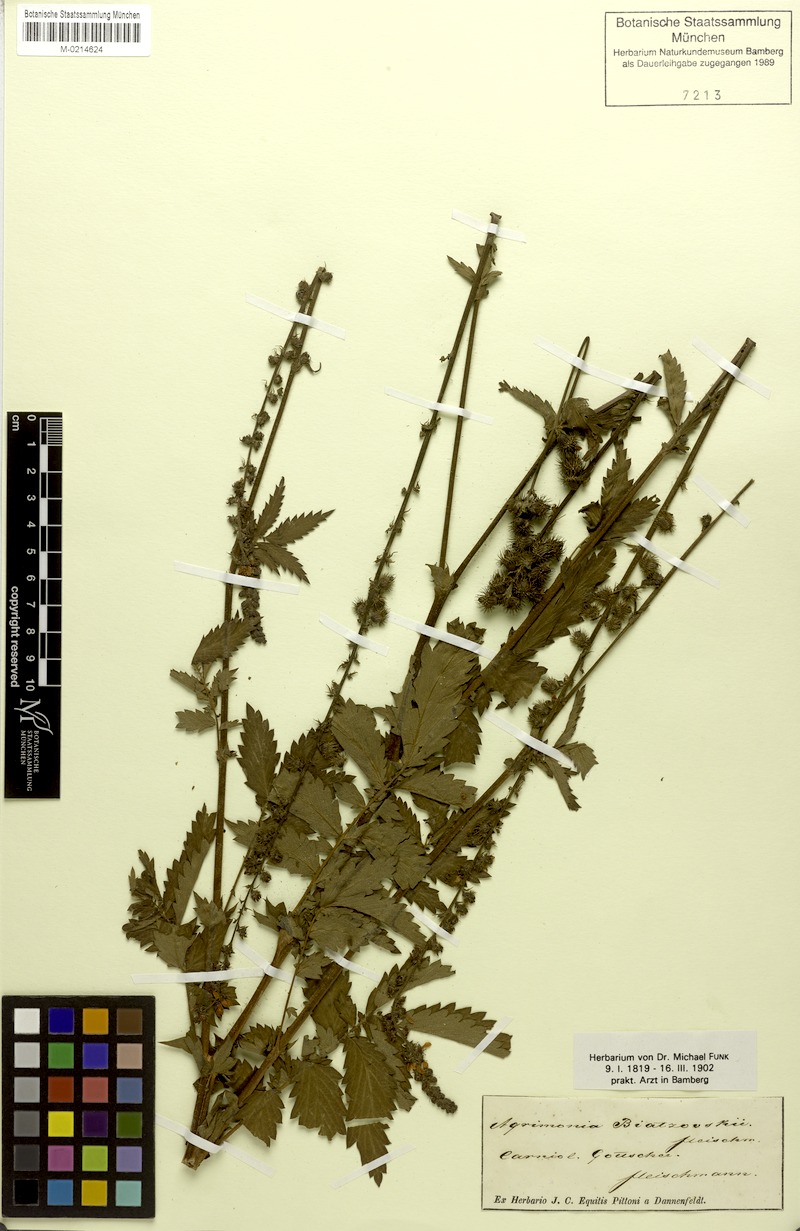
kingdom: Plantae
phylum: Tracheophyta
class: Magnoliopsida
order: Rosales
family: Rosaceae
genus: Agrimonia
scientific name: Agrimonia procera
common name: Fragrant agrimony
